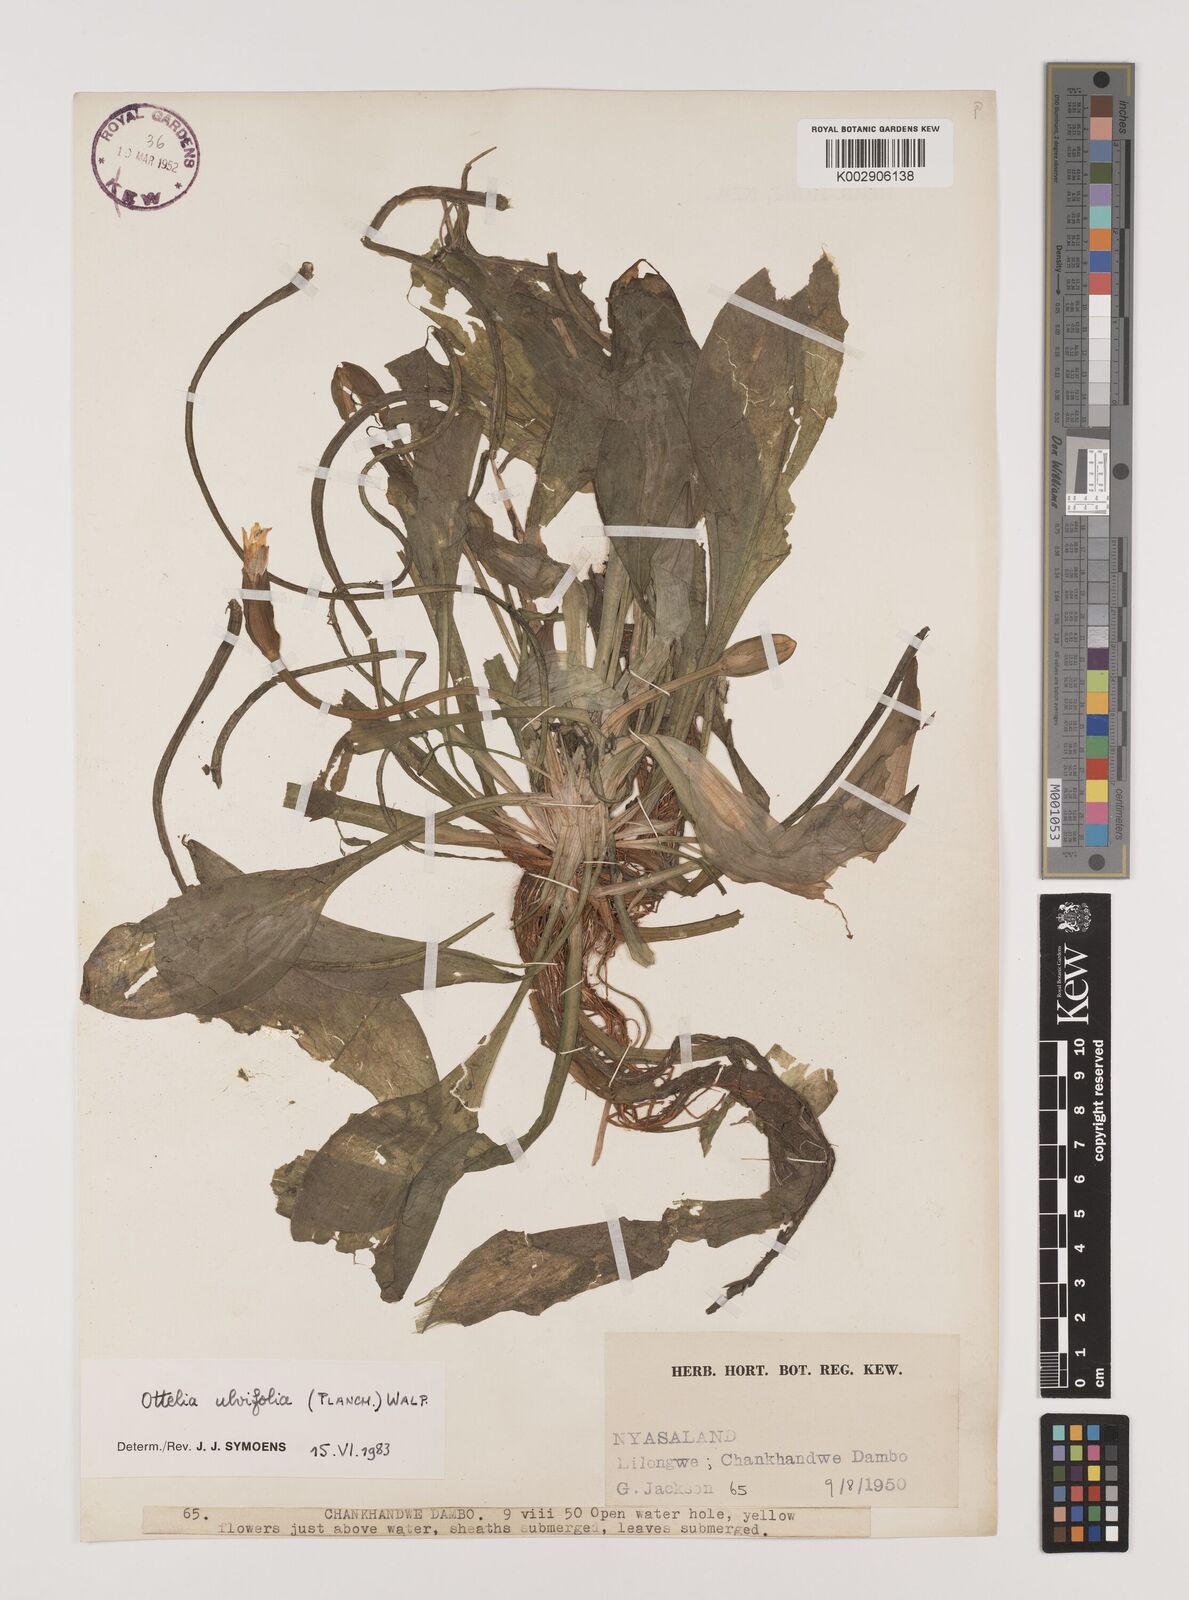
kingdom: Plantae
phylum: Tracheophyta
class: Liliopsida
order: Alismatales
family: Hydrocharitaceae
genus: Ottelia
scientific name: Ottelia ulvifolia
